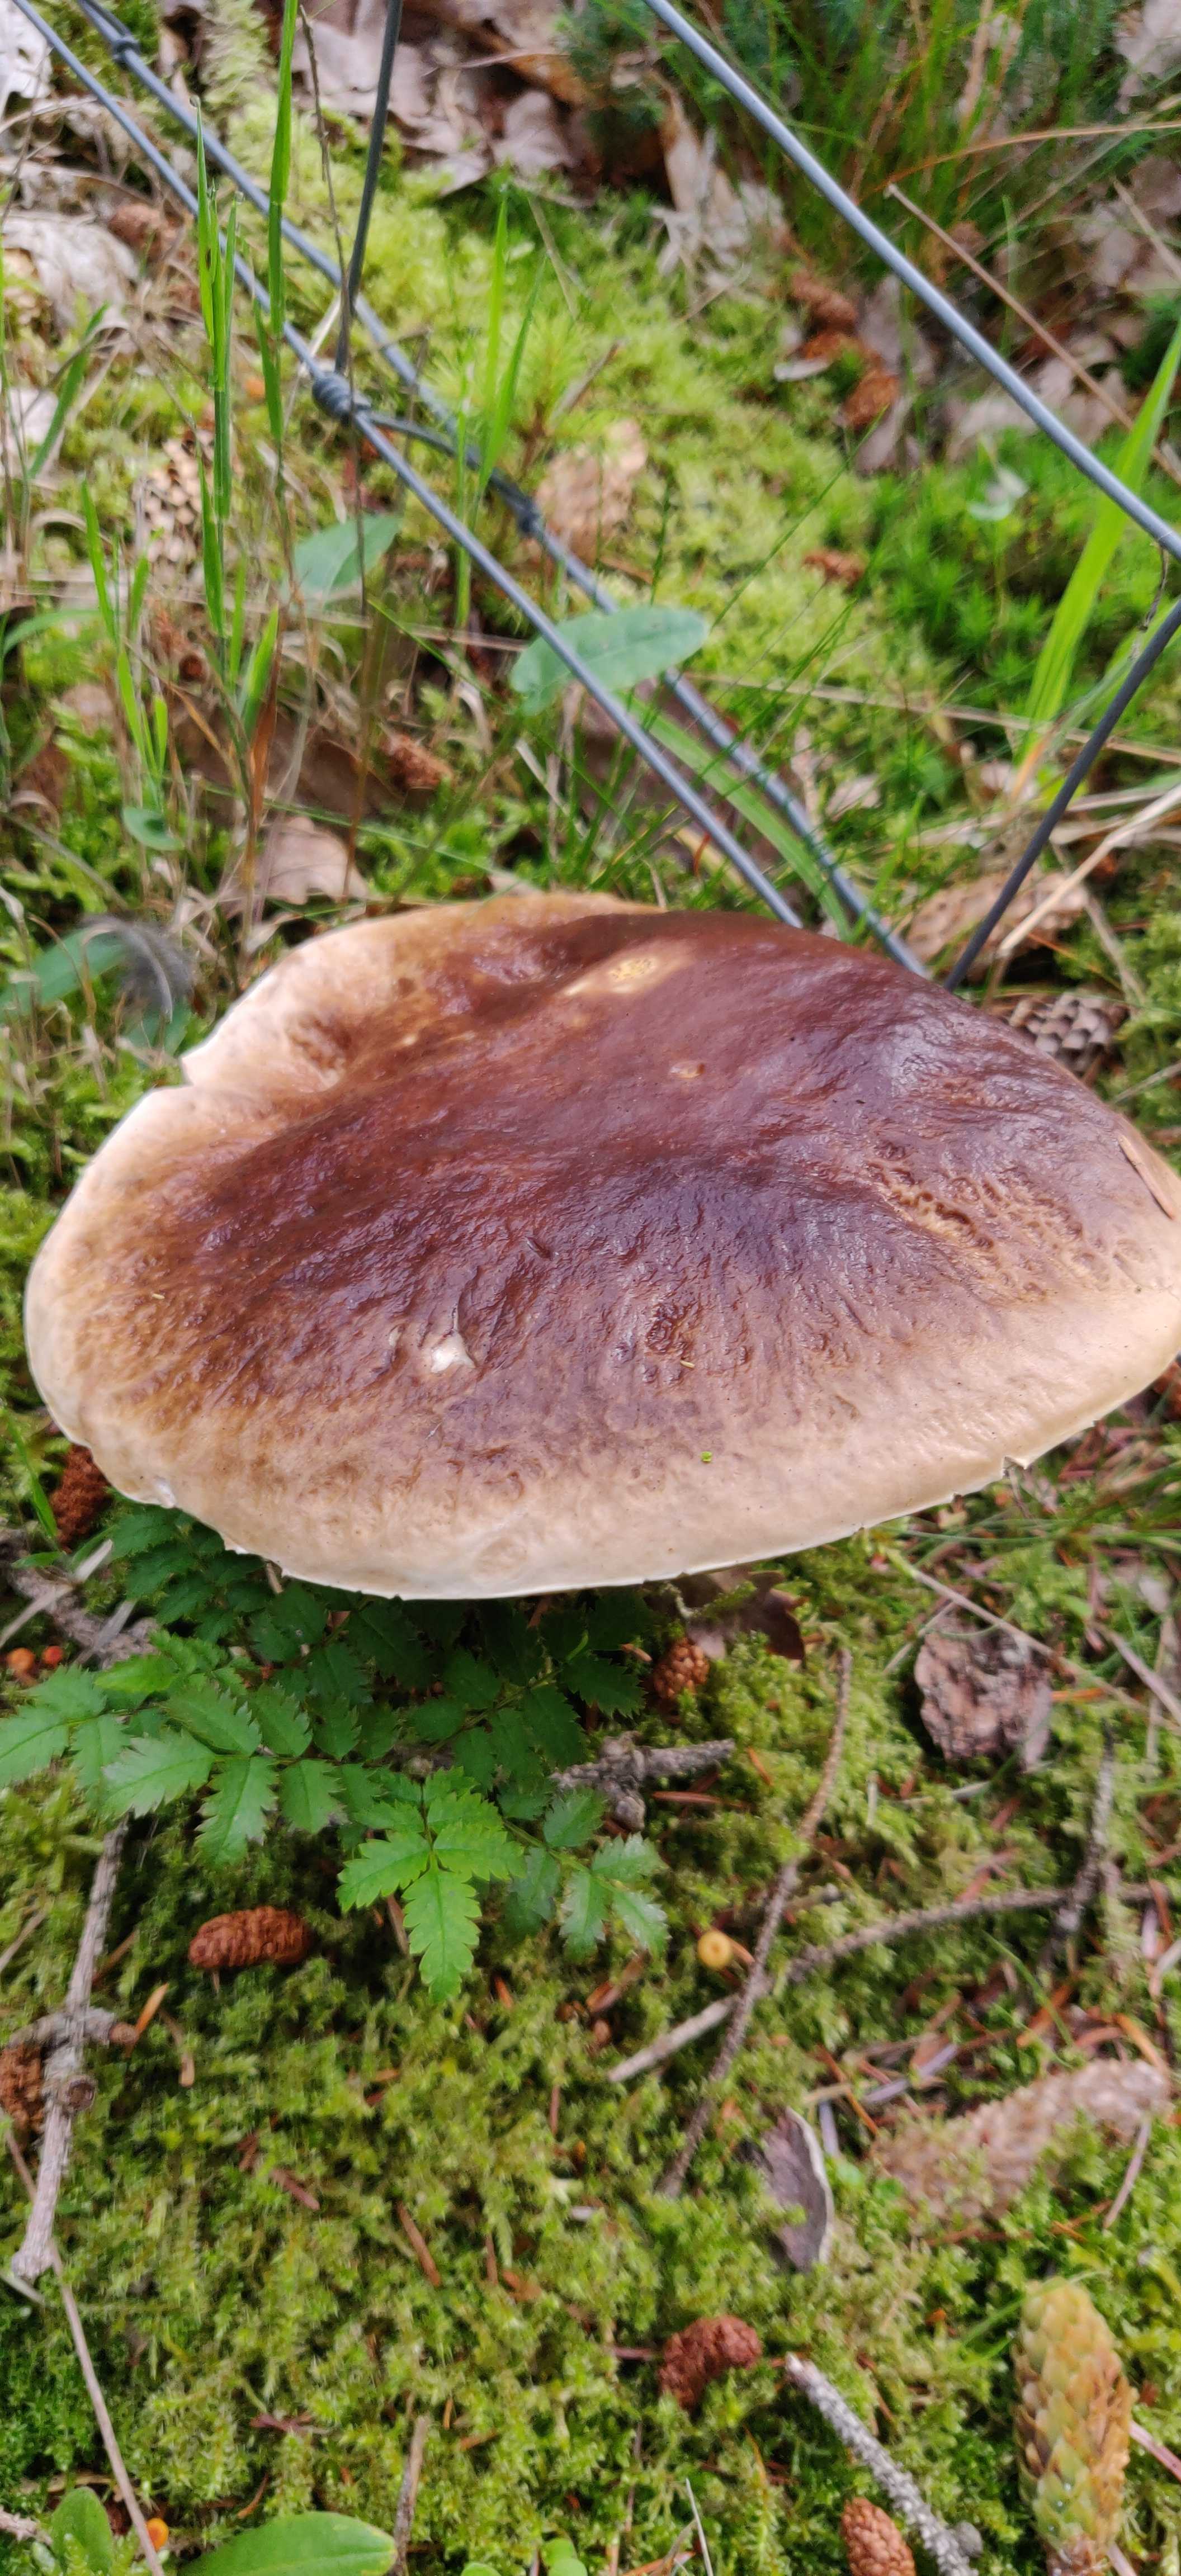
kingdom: Fungi
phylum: Basidiomycota
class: Agaricomycetes
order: Boletales
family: Boletaceae
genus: Boletus
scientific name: Boletus edulis
